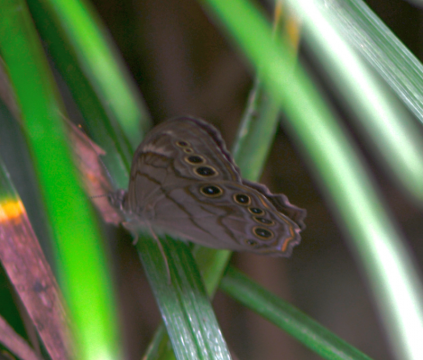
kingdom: Animalia
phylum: Arthropoda
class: Insecta
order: Lepidoptera
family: Nymphalidae
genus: Lethe
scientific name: Lethe anthedon
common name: Northern Pearly-Eye
